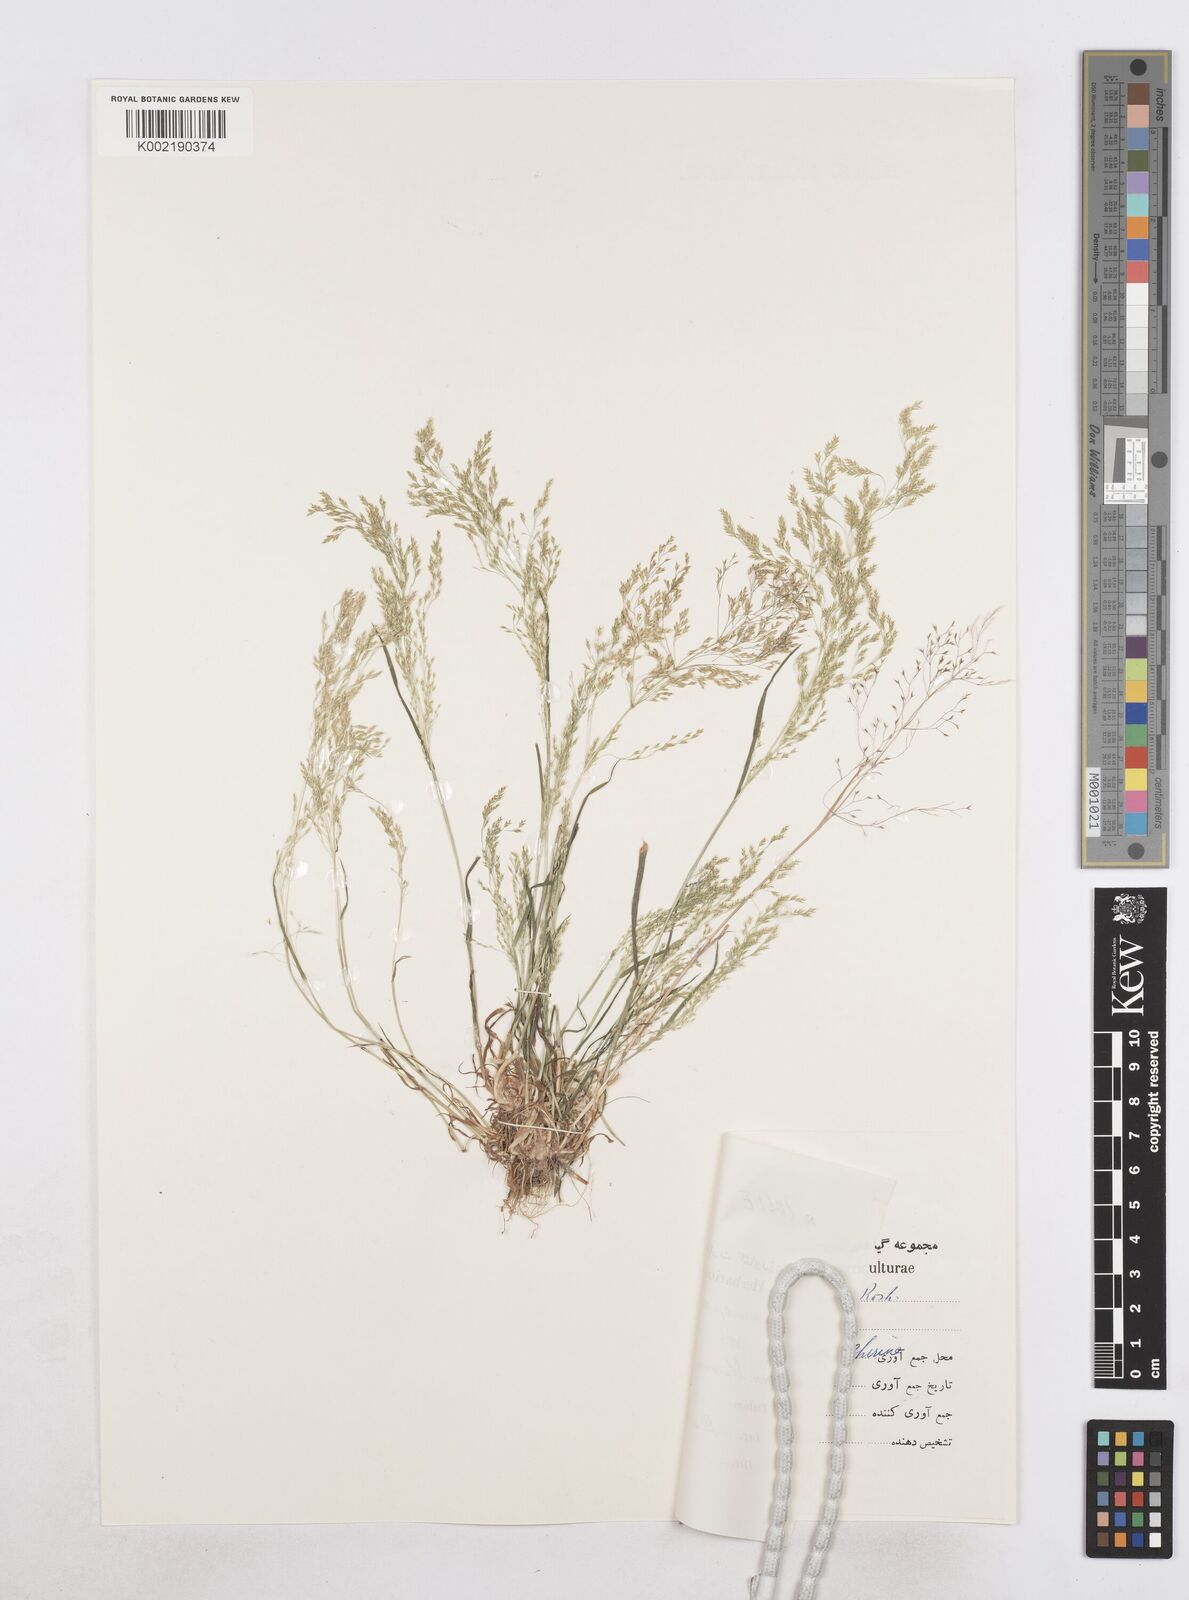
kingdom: Plantae
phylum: Tracheophyta
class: Liliopsida
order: Poales
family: Poaceae
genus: Poa
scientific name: Poa persica
